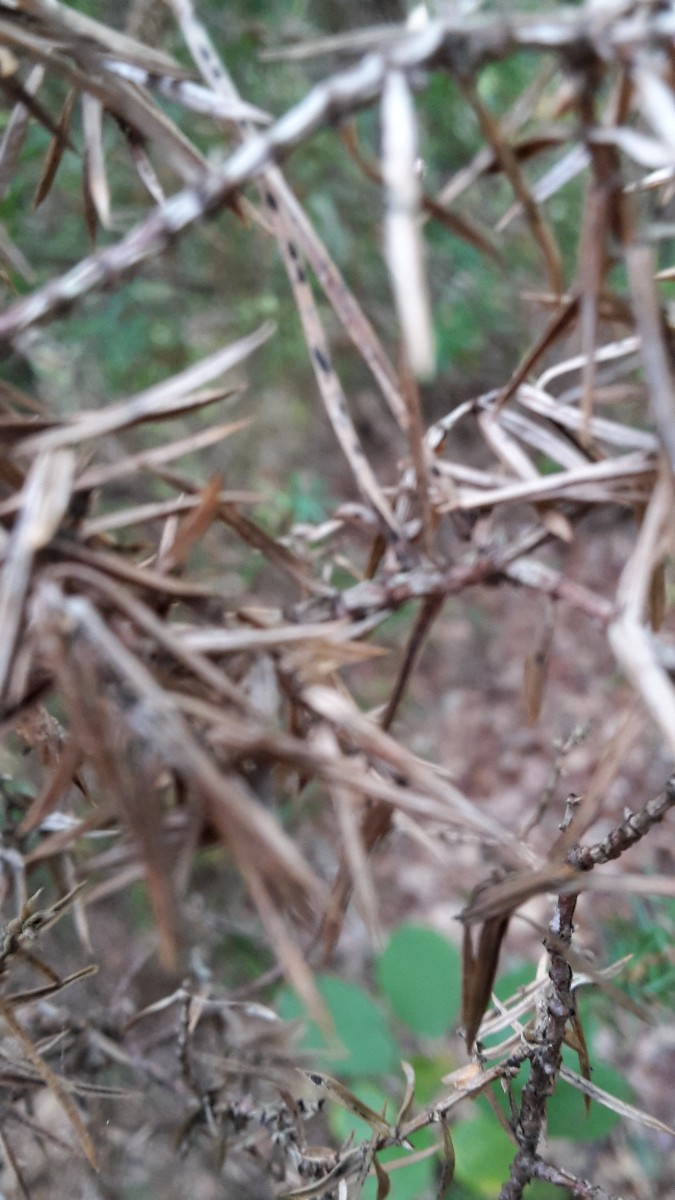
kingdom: Fungi
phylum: Ascomycota
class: Leotiomycetes
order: Rhytismatales
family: Rhytismataceae
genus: Lophodermium
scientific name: Lophodermium juniperinum
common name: ene-fureplet
